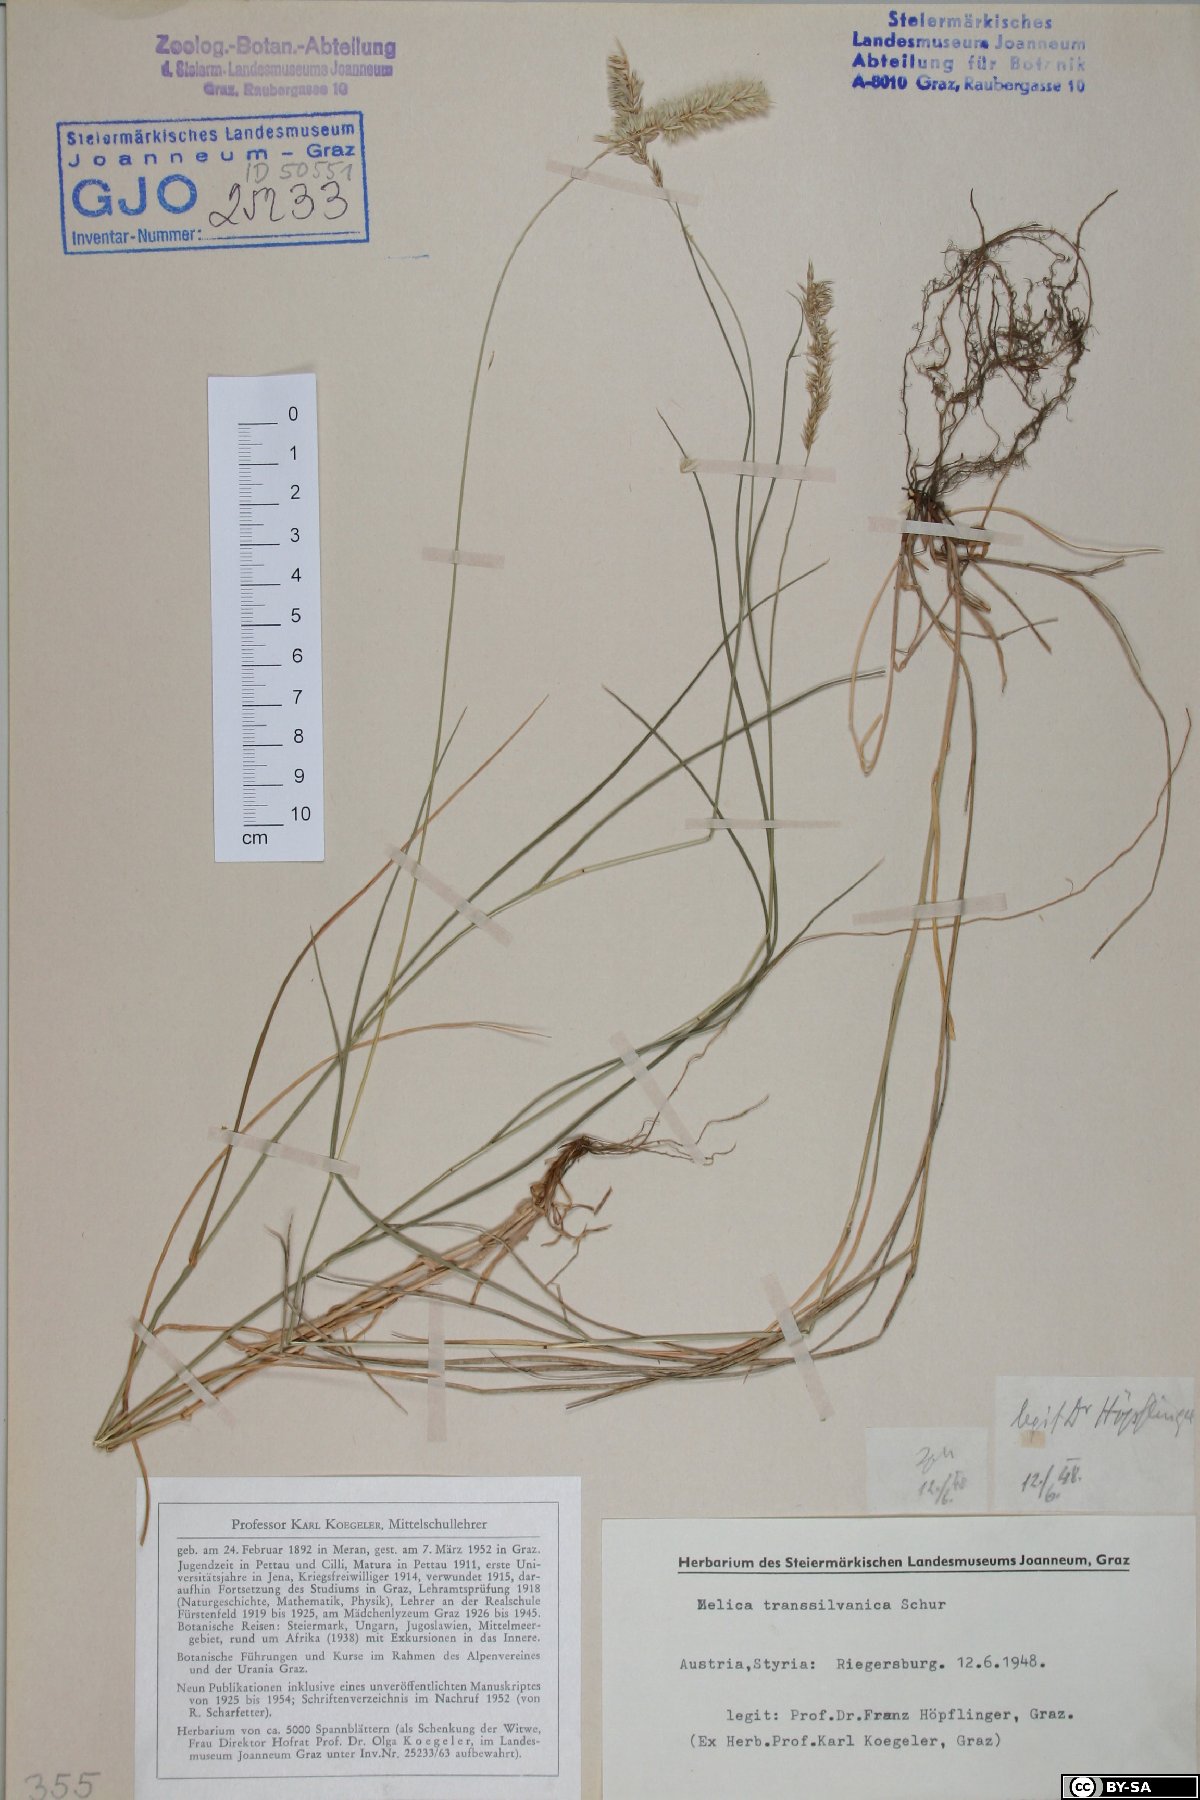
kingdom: Plantae
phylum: Tracheophyta
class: Liliopsida
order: Poales
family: Poaceae
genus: Melica
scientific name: Melica transsilvanica
